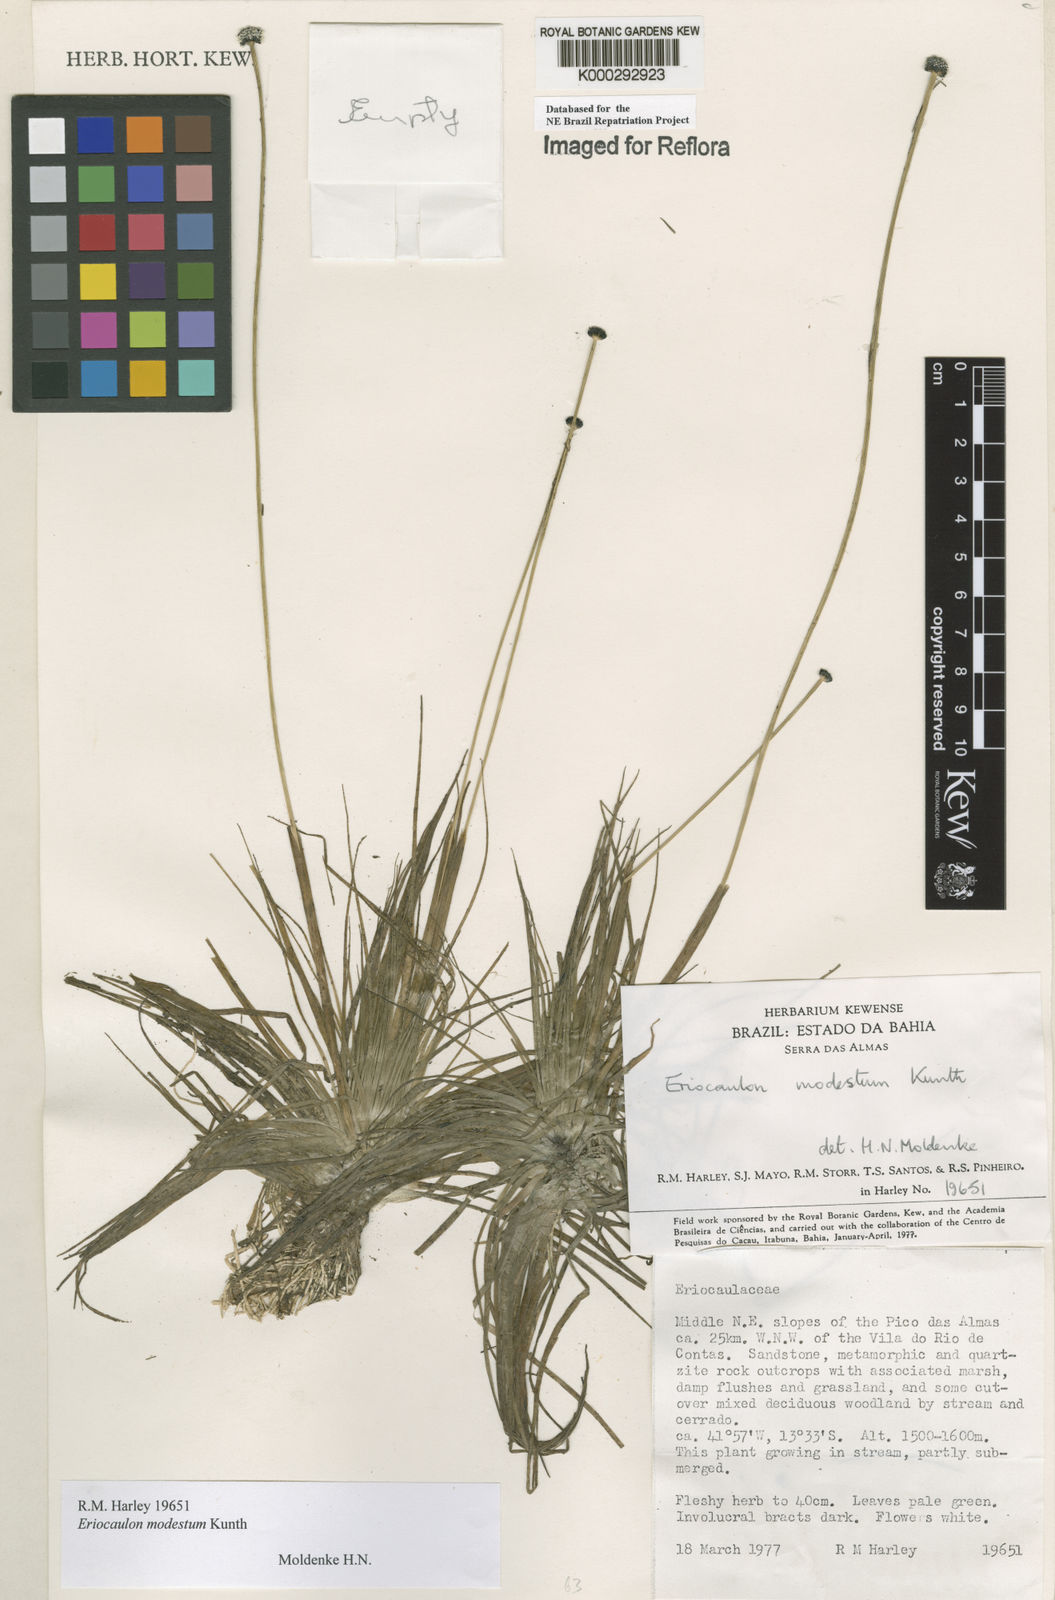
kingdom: Plantae
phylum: Tracheophyta
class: Liliopsida
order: Poales
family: Eriocaulaceae
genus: Eriocaulon
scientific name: Eriocaulon modestum
